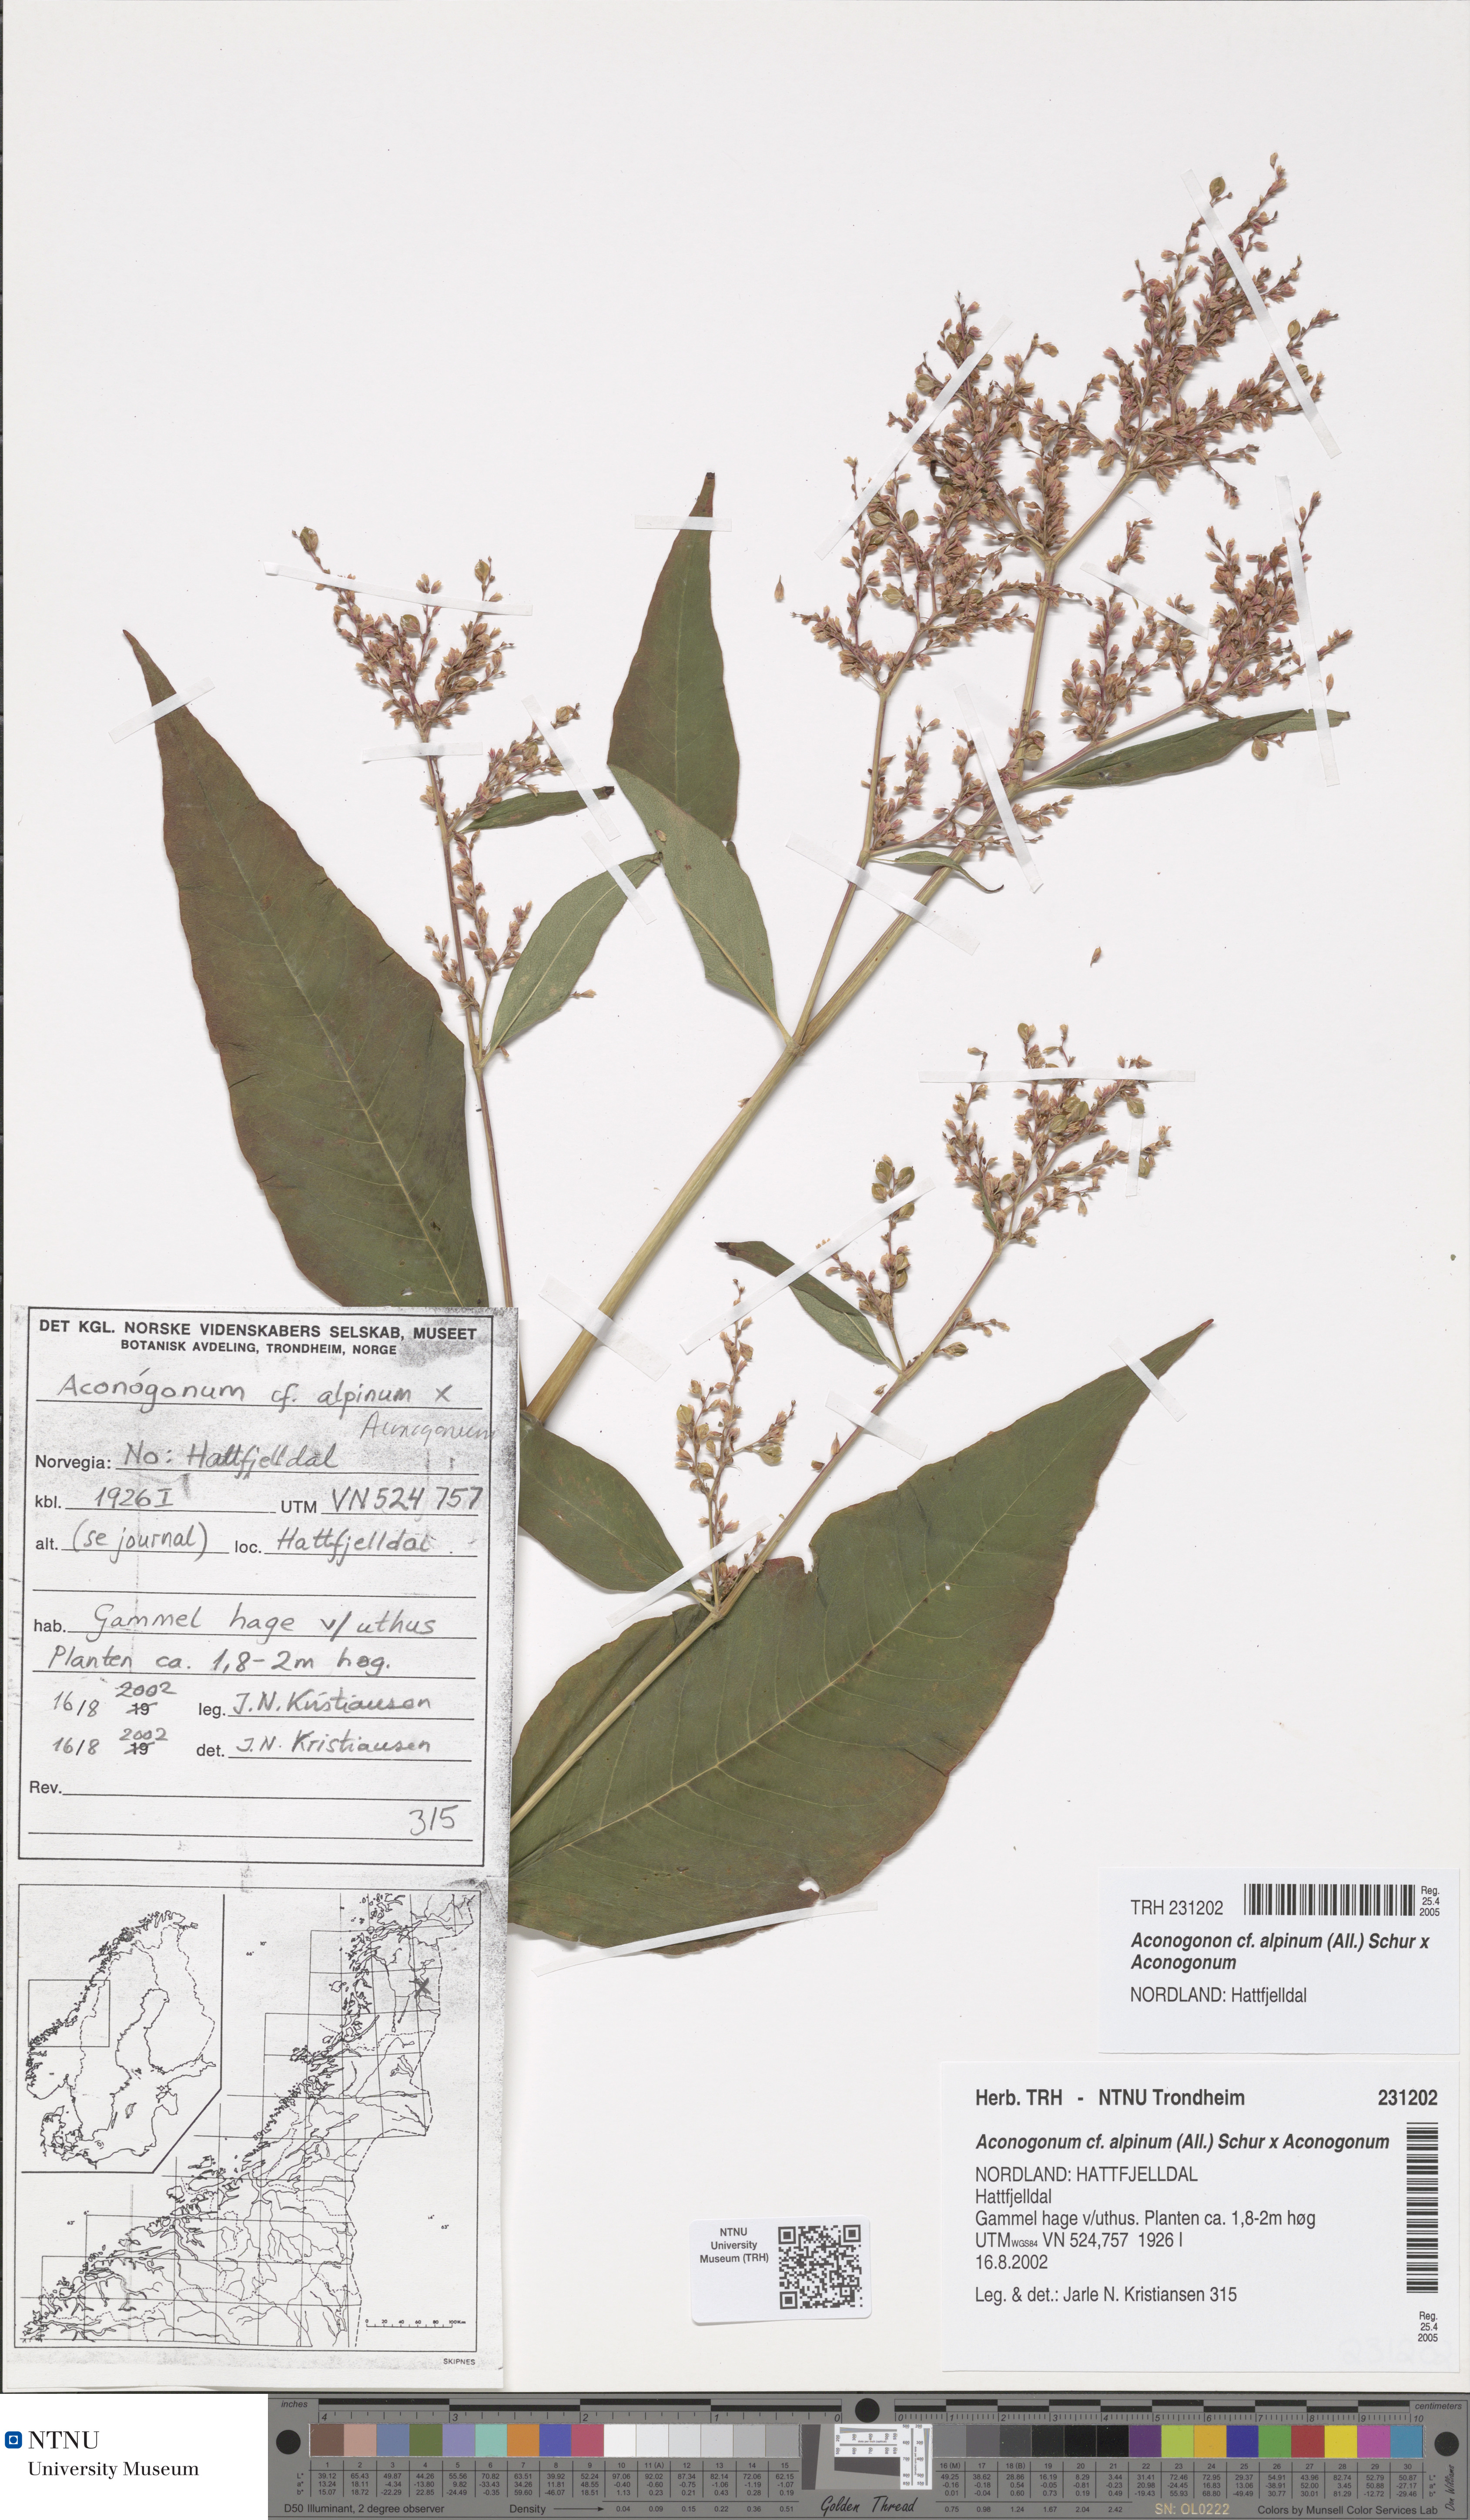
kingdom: Plantae
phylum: Tracheophyta
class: Magnoliopsida
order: Caryophyllales
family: Polygonaceae
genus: Koenigia
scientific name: Koenigia fennica
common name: Finnish knotweed
